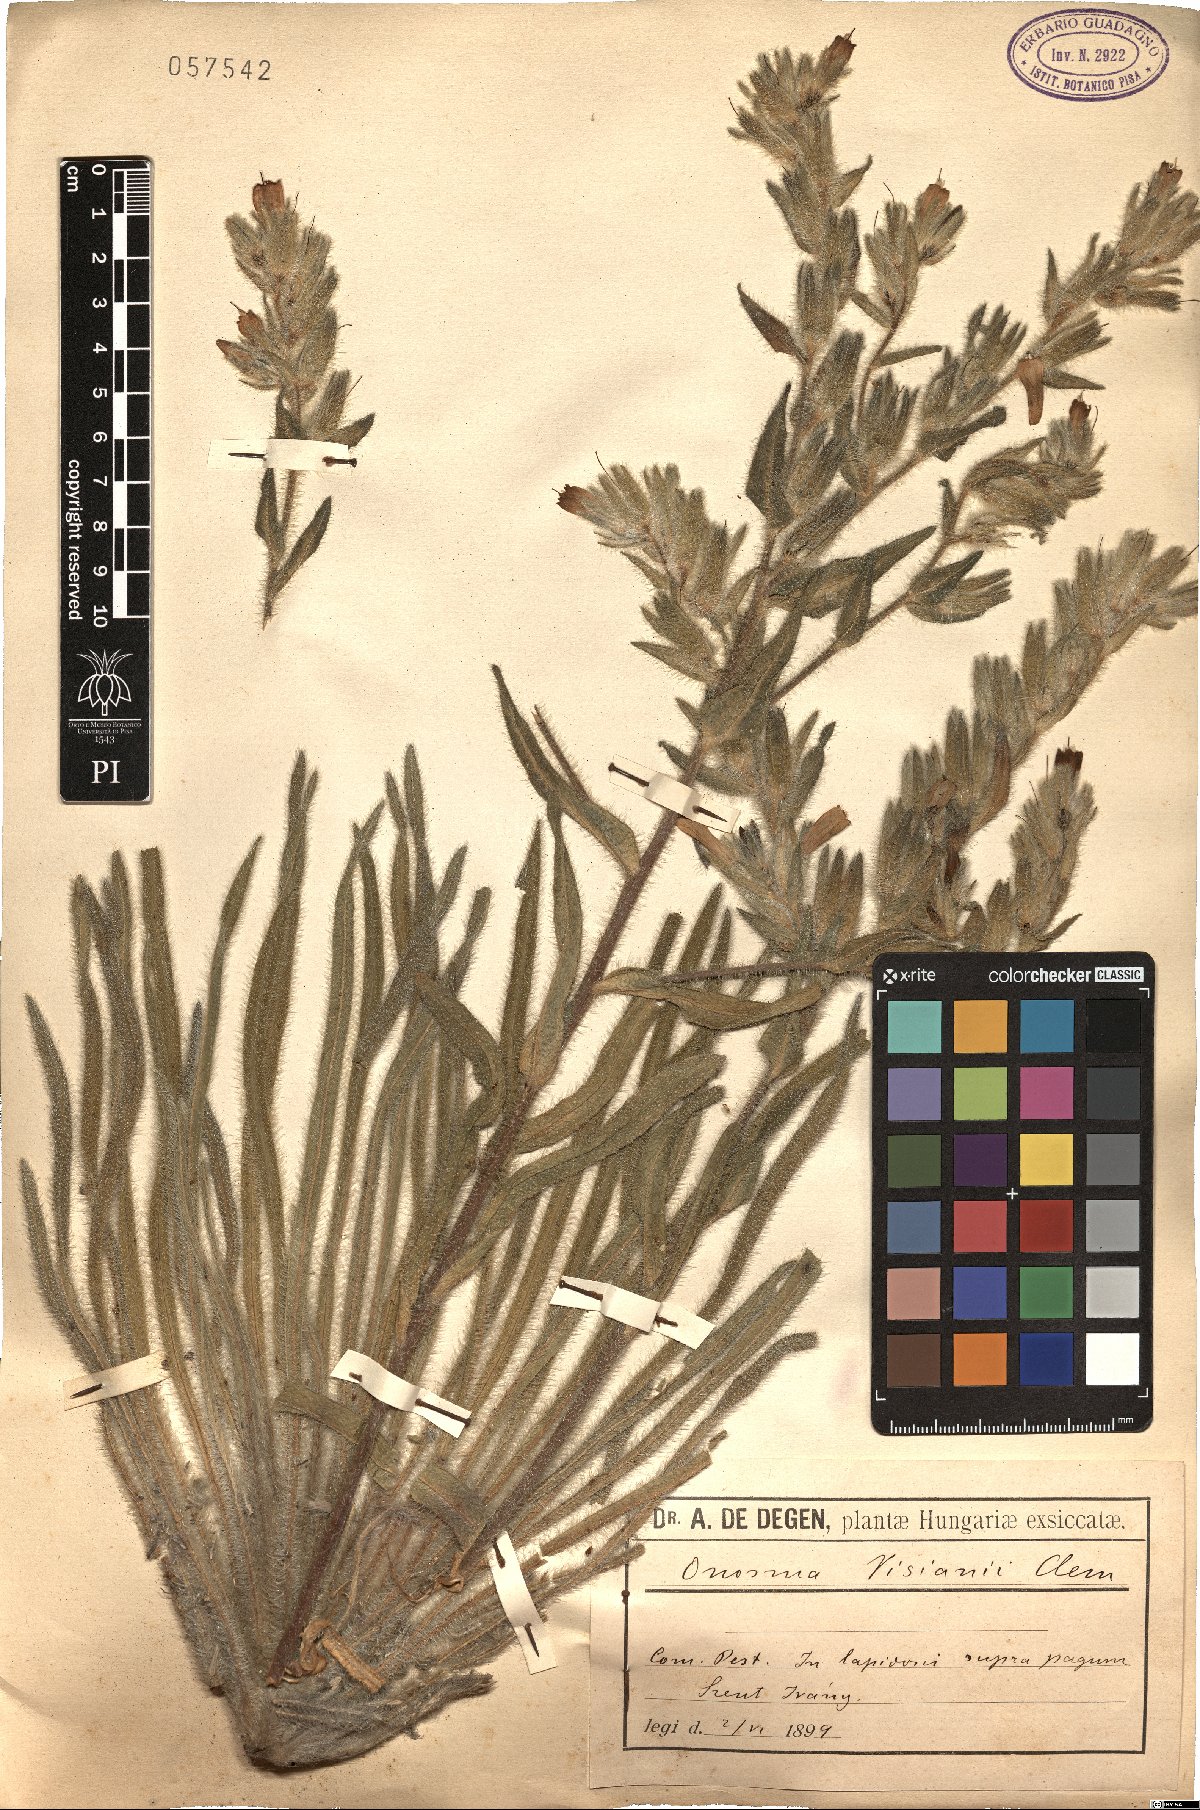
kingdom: Plantae
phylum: Tracheophyta
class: Magnoliopsida
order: Boraginales
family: Boraginaceae
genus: Onosma
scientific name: Onosma visianii
